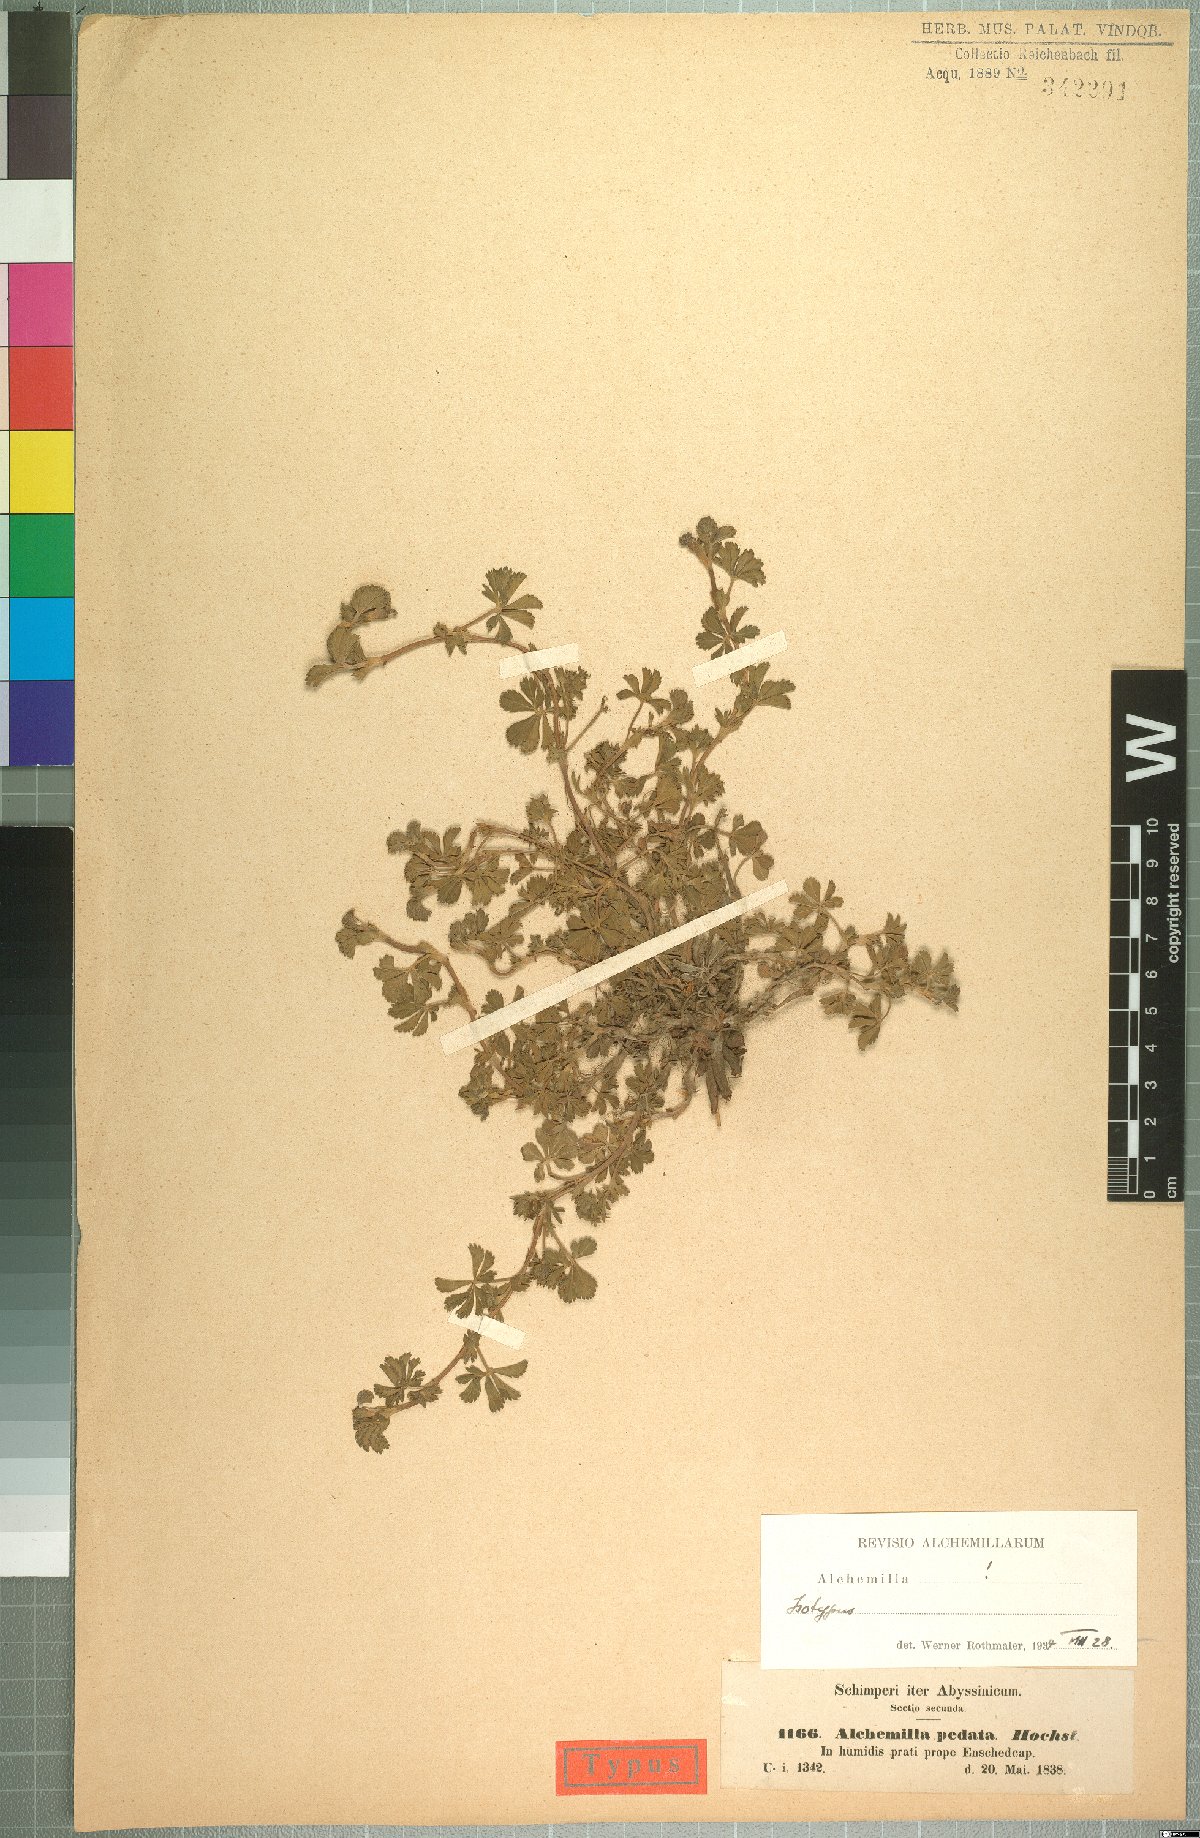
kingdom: Plantae
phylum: Tracheophyta
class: Magnoliopsida
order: Rosales
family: Rosaceae
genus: Alchemilla
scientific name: Alchemilla pedata
